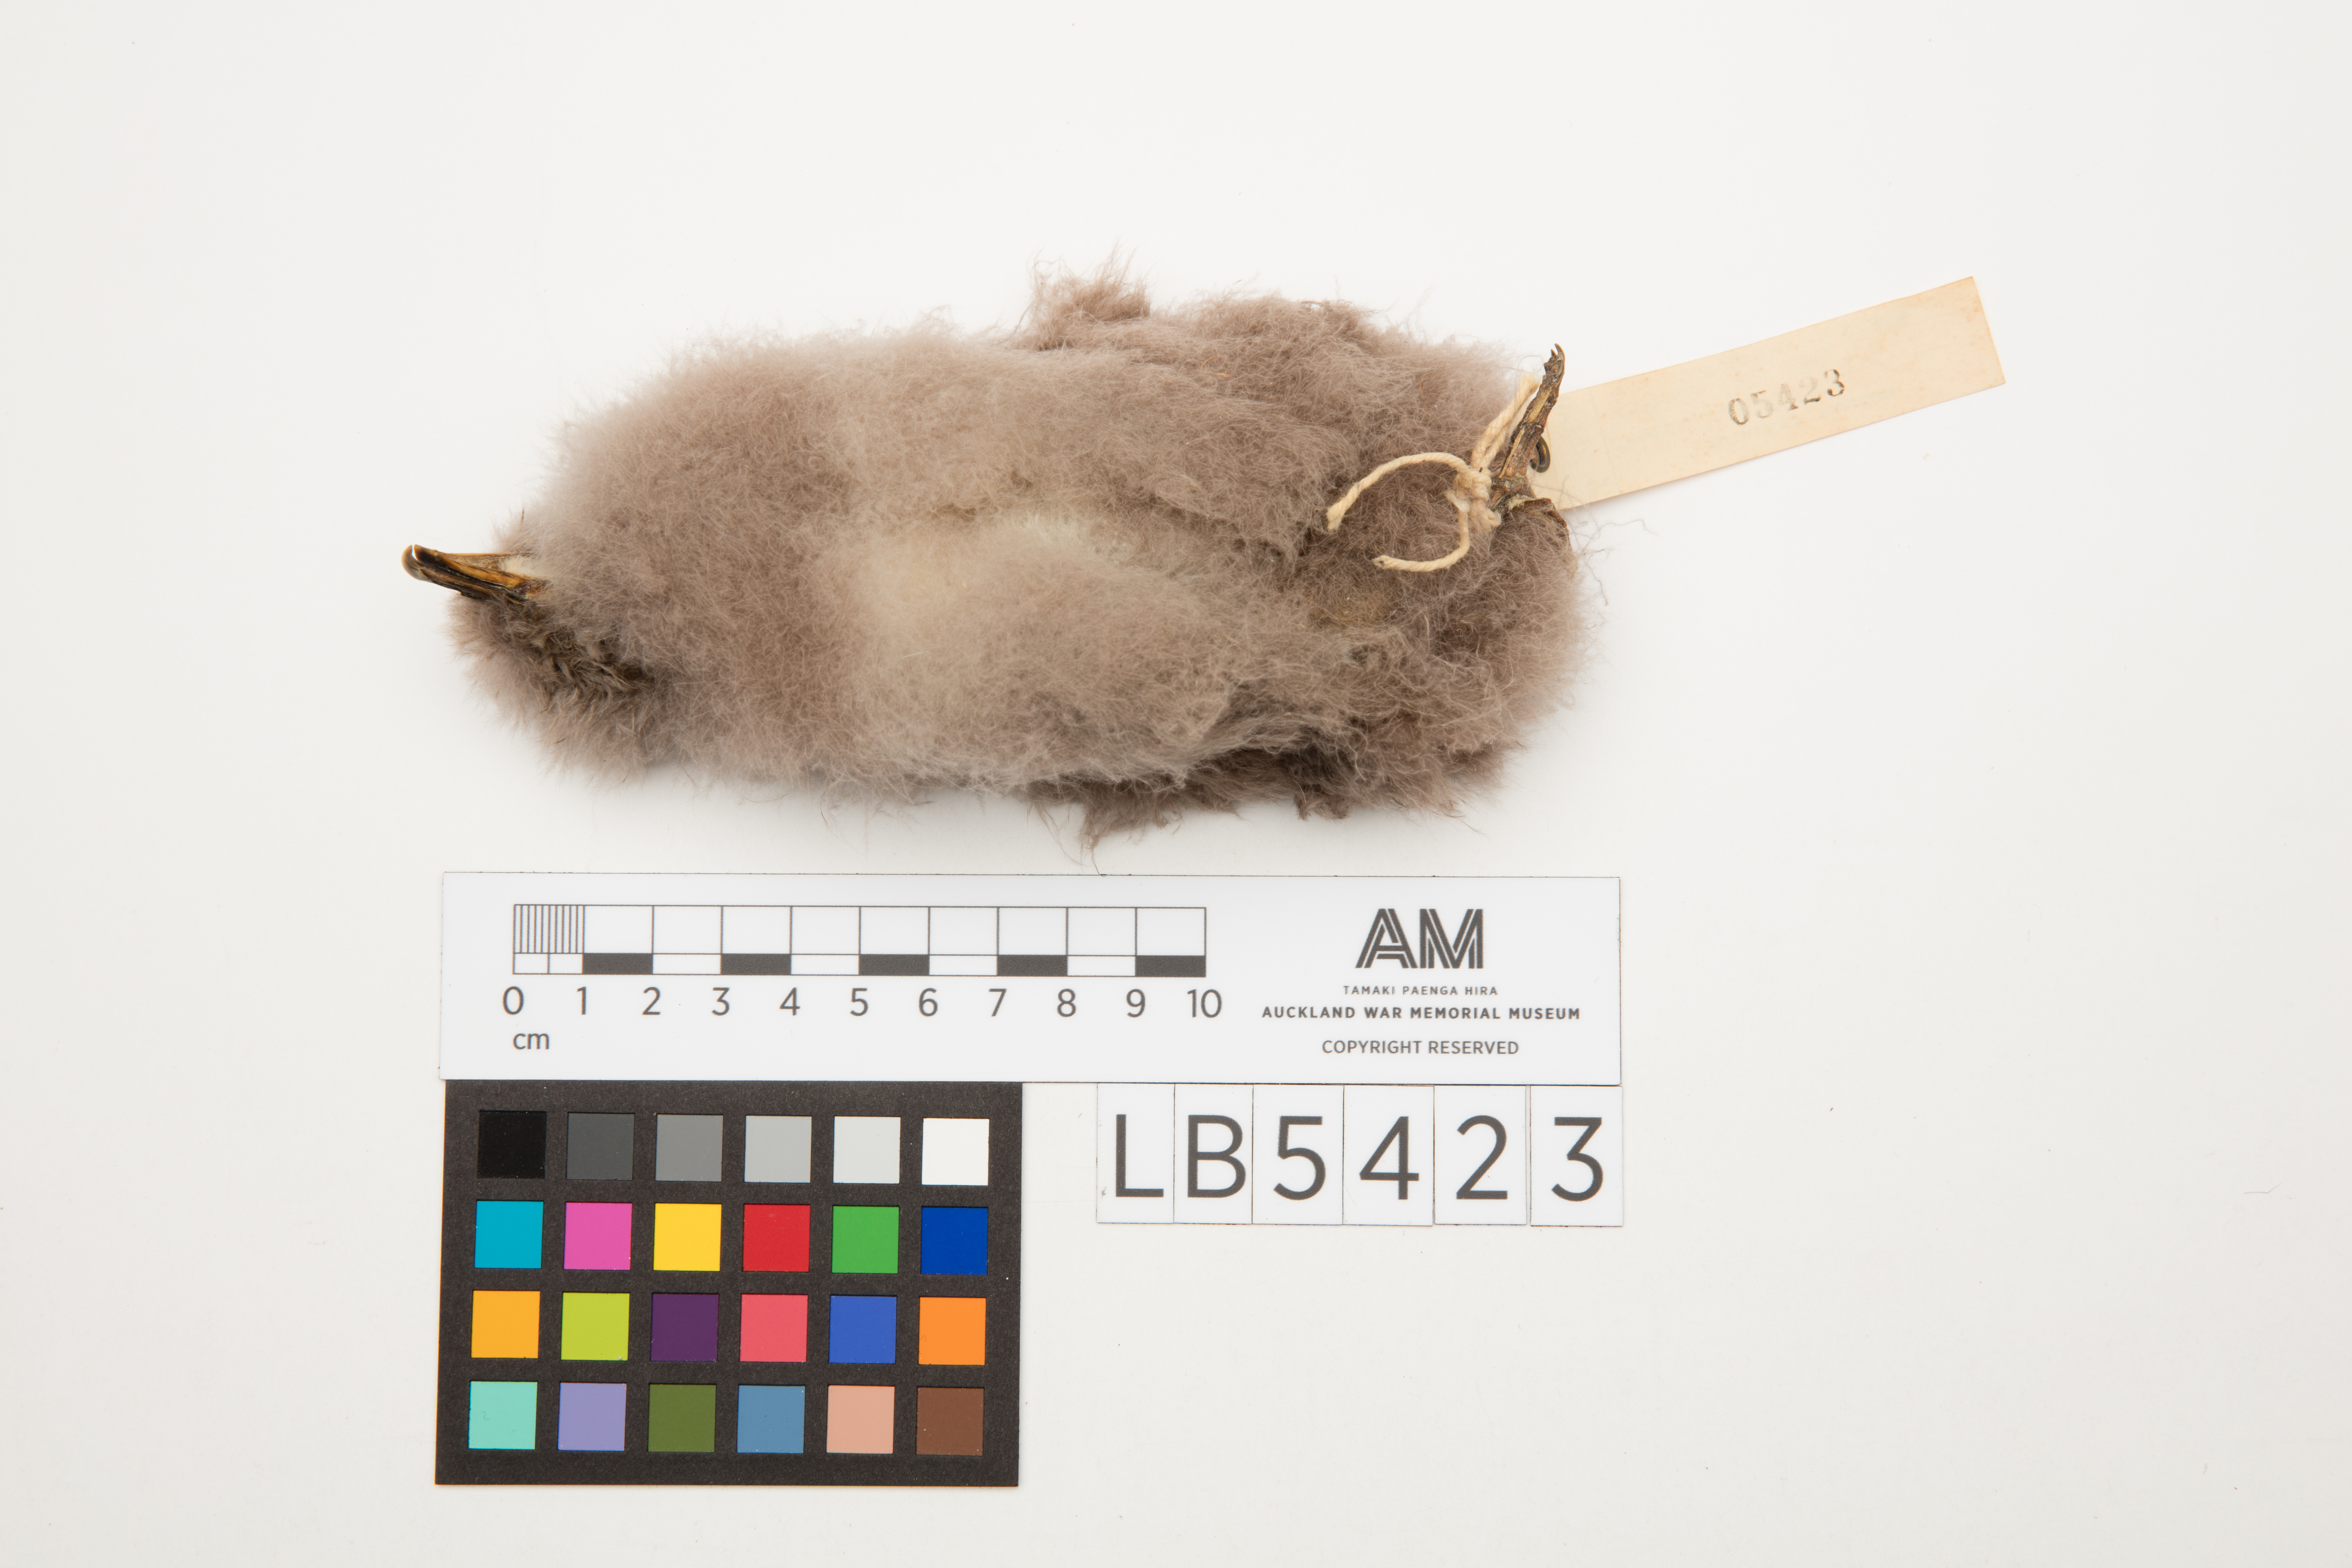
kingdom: Animalia
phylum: Chordata
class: Aves
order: Procellariiformes
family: Procellariidae
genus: Pachyptila
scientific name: Pachyptila vittata
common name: Broad-billed prion
